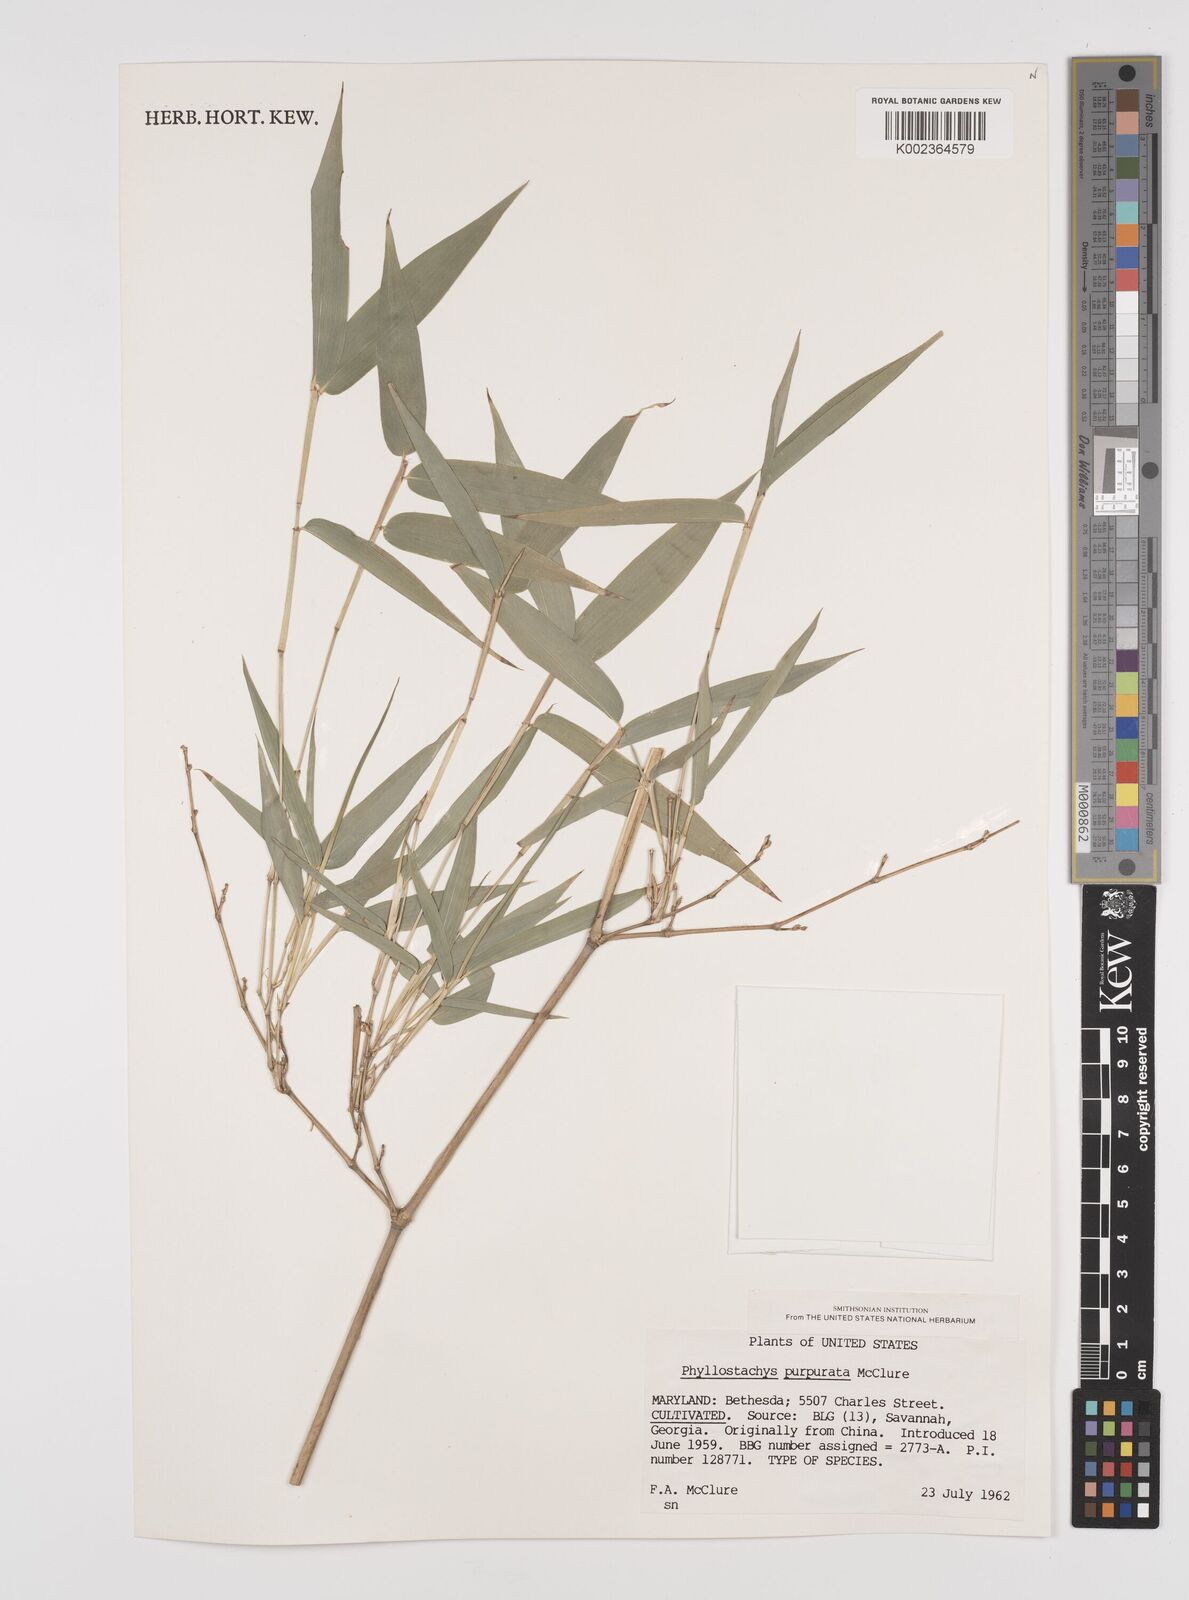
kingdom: Plantae
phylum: Tracheophyta
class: Liliopsida
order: Poales
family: Poaceae
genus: Phyllostachys
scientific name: Phyllostachys heteroclada
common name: Fishscale bamboo
